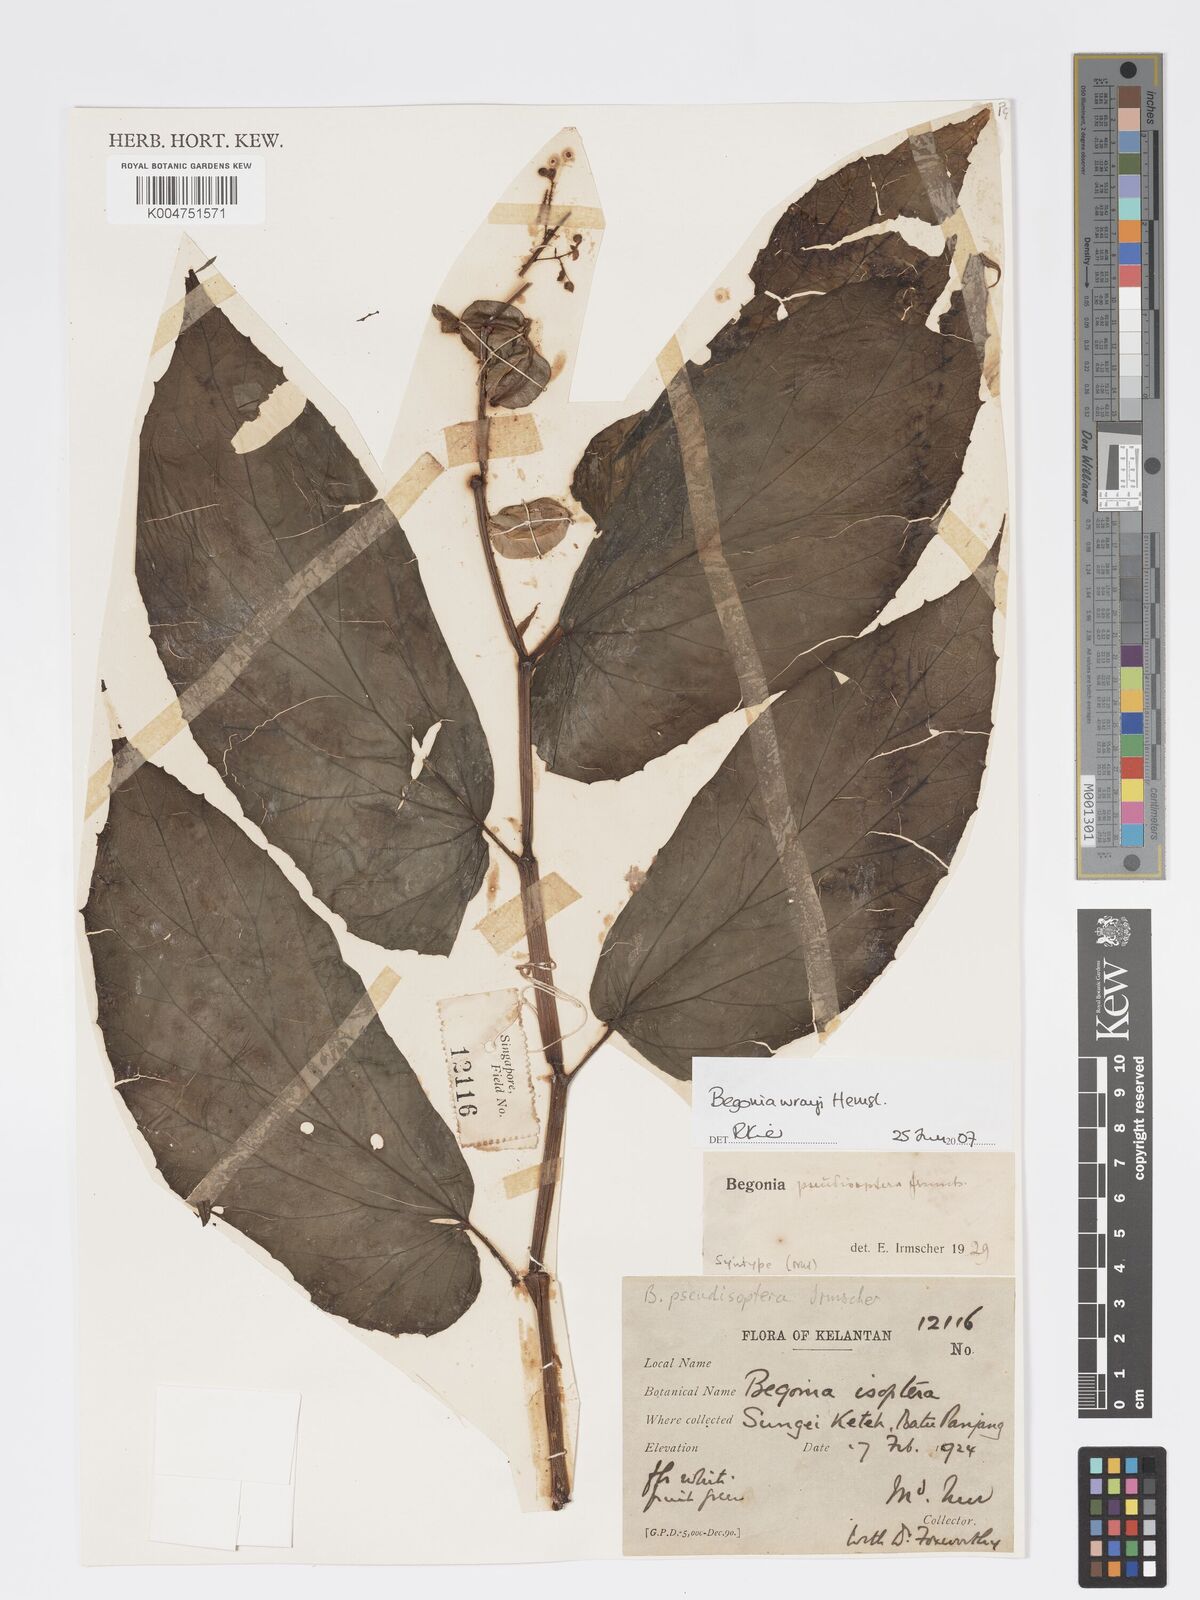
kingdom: Plantae
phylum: Tracheophyta
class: Magnoliopsida
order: Cucurbitales
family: Begoniaceae
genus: Begonia
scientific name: Begonia wrayi
